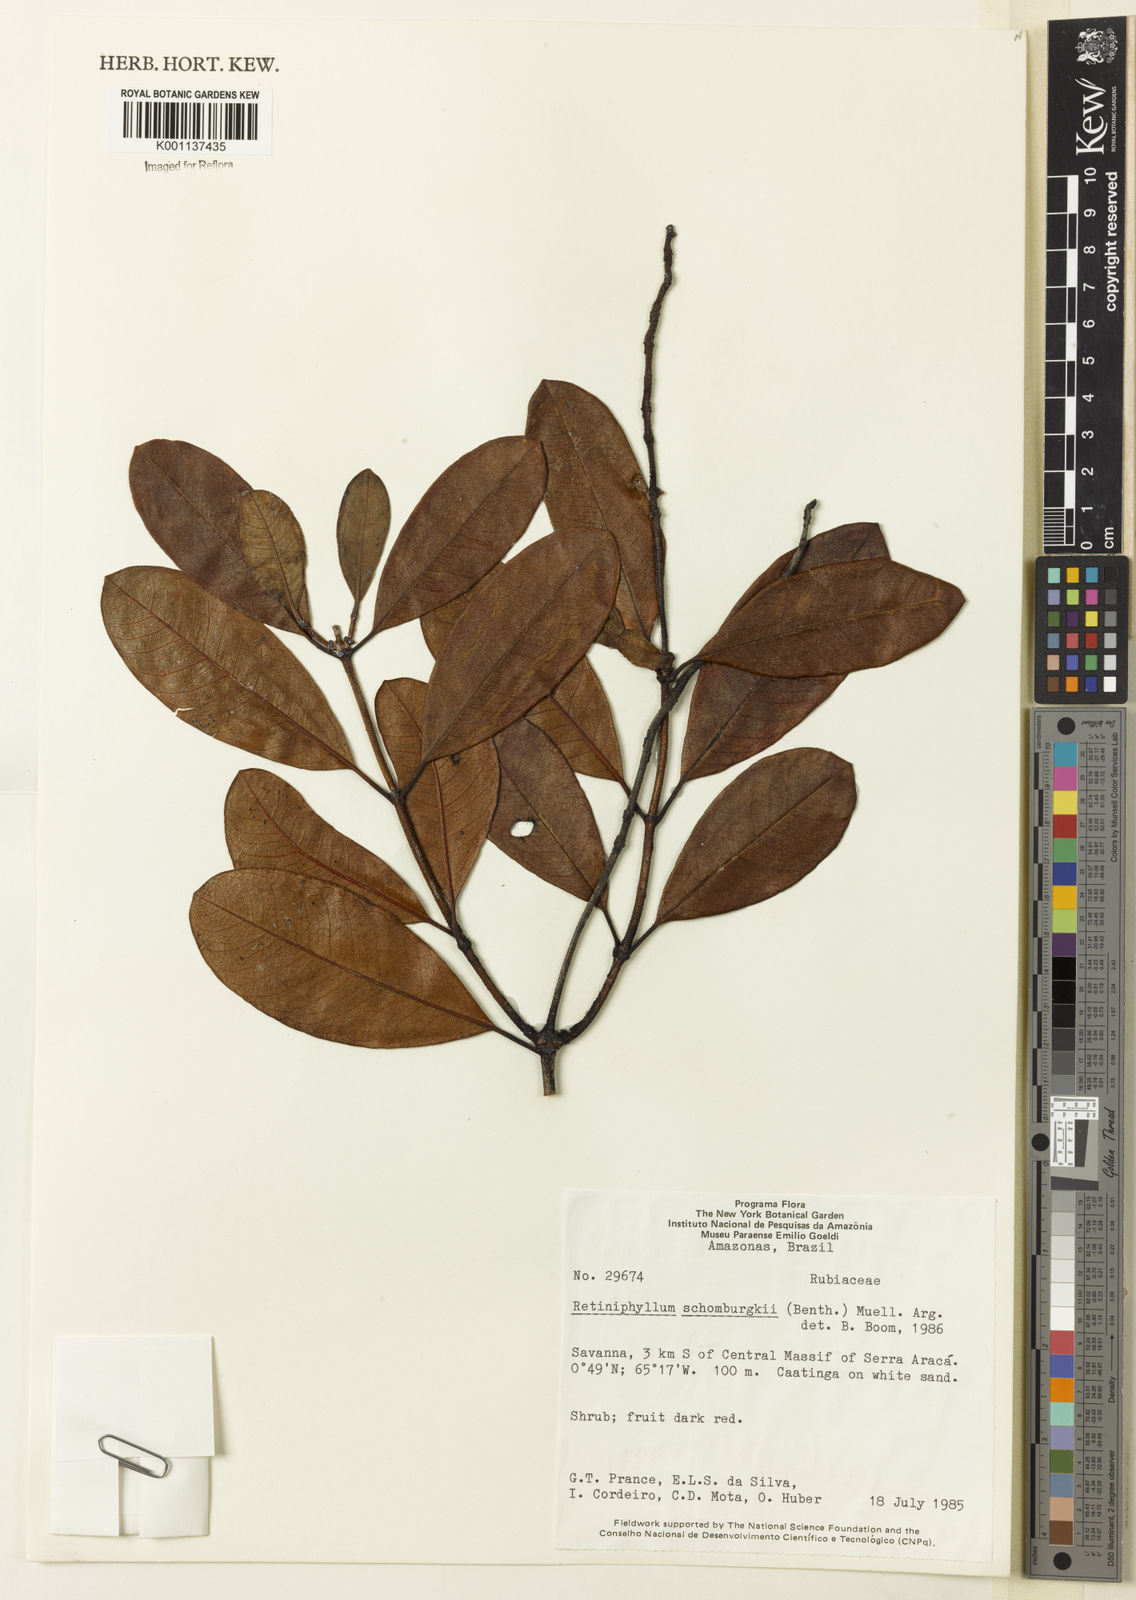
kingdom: Plantae
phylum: Tracheophyta
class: Magnoliopsida
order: Gentianales
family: Rubiaceae
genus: Retiniphyllum
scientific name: Retiniphyllum
